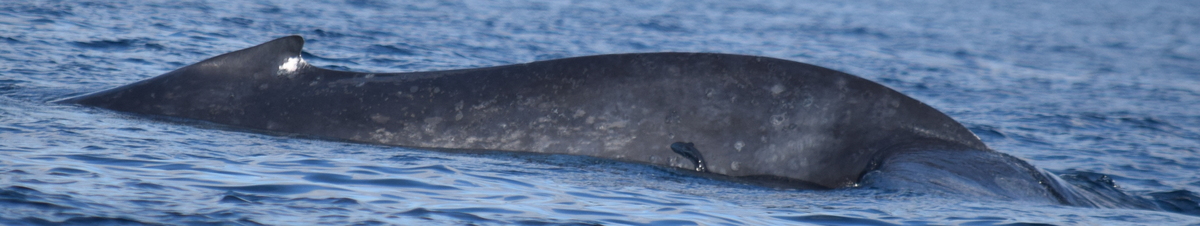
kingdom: Animalia
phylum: Chordata
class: Mammalia
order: Cetacea
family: Balaenopteridae
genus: Balaenoptera
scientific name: Balaenoptera musculus
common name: Blue whale
